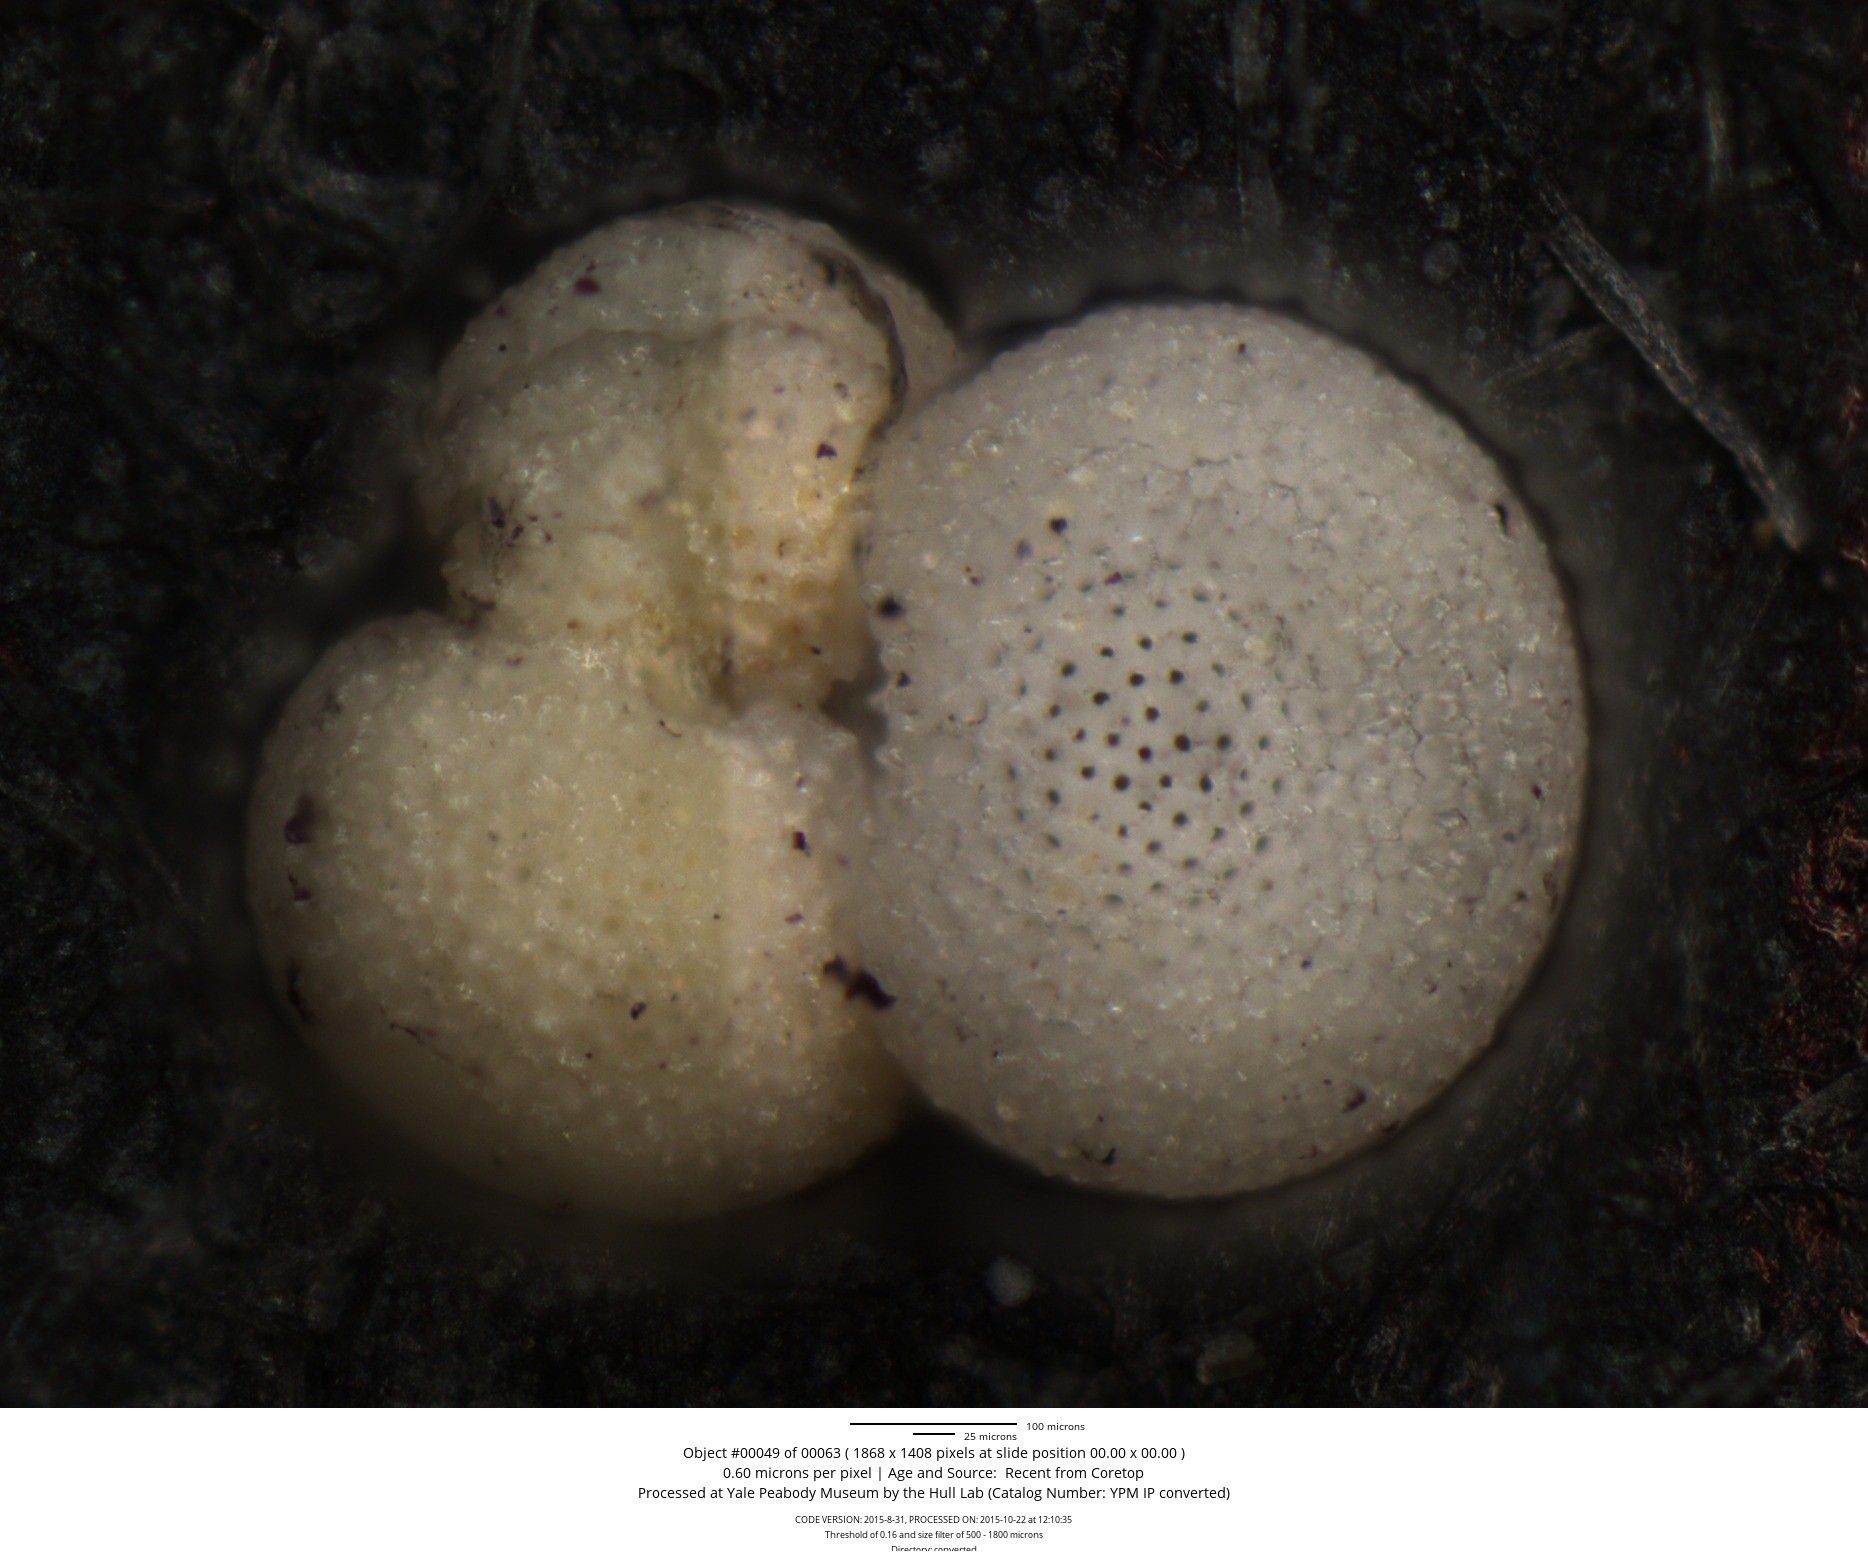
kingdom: Chromista
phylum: Foraminifera
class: Globothalamea
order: Rotaliida
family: Globigerinidae
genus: Globigerinoides
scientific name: Globigerinoides sacculifer
